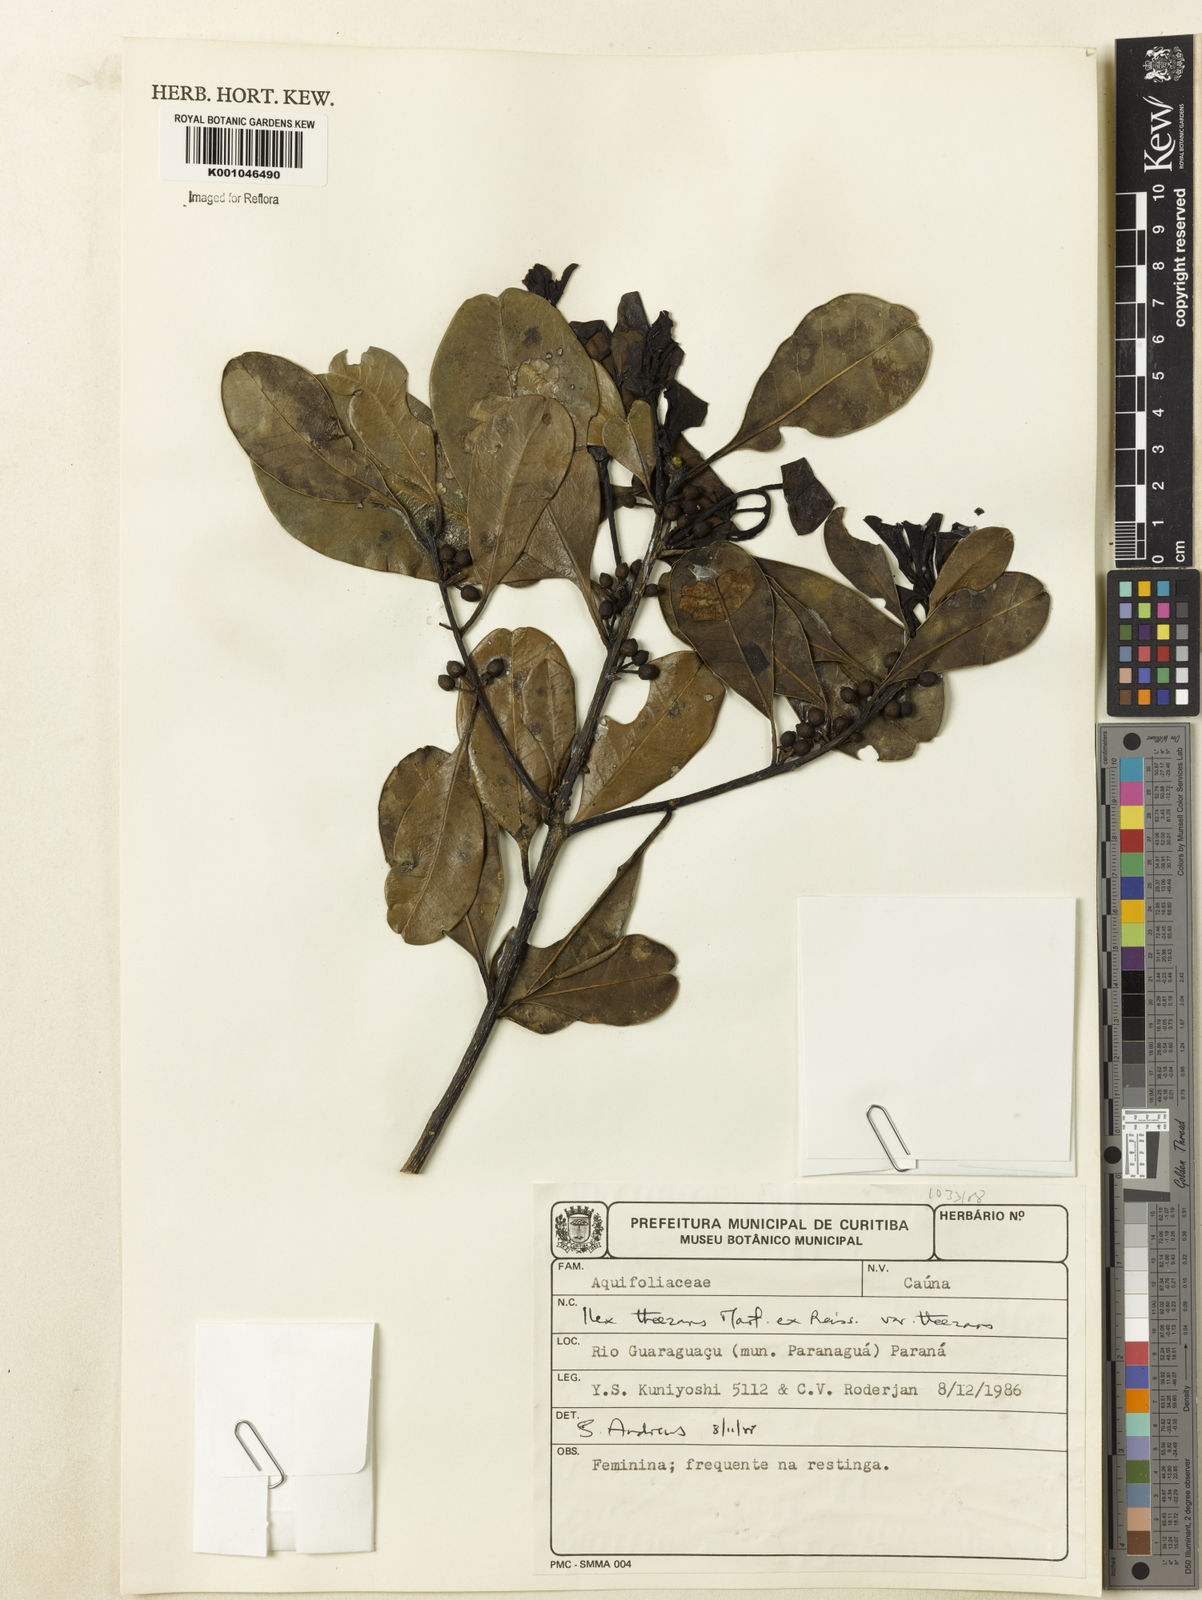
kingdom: Plantae
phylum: Tracheophyta
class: Magnoliopsida
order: Aquifoliales
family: Aquifoliaceae
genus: Ilex
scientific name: Ilex paraguariensis
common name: Paraguay tea
